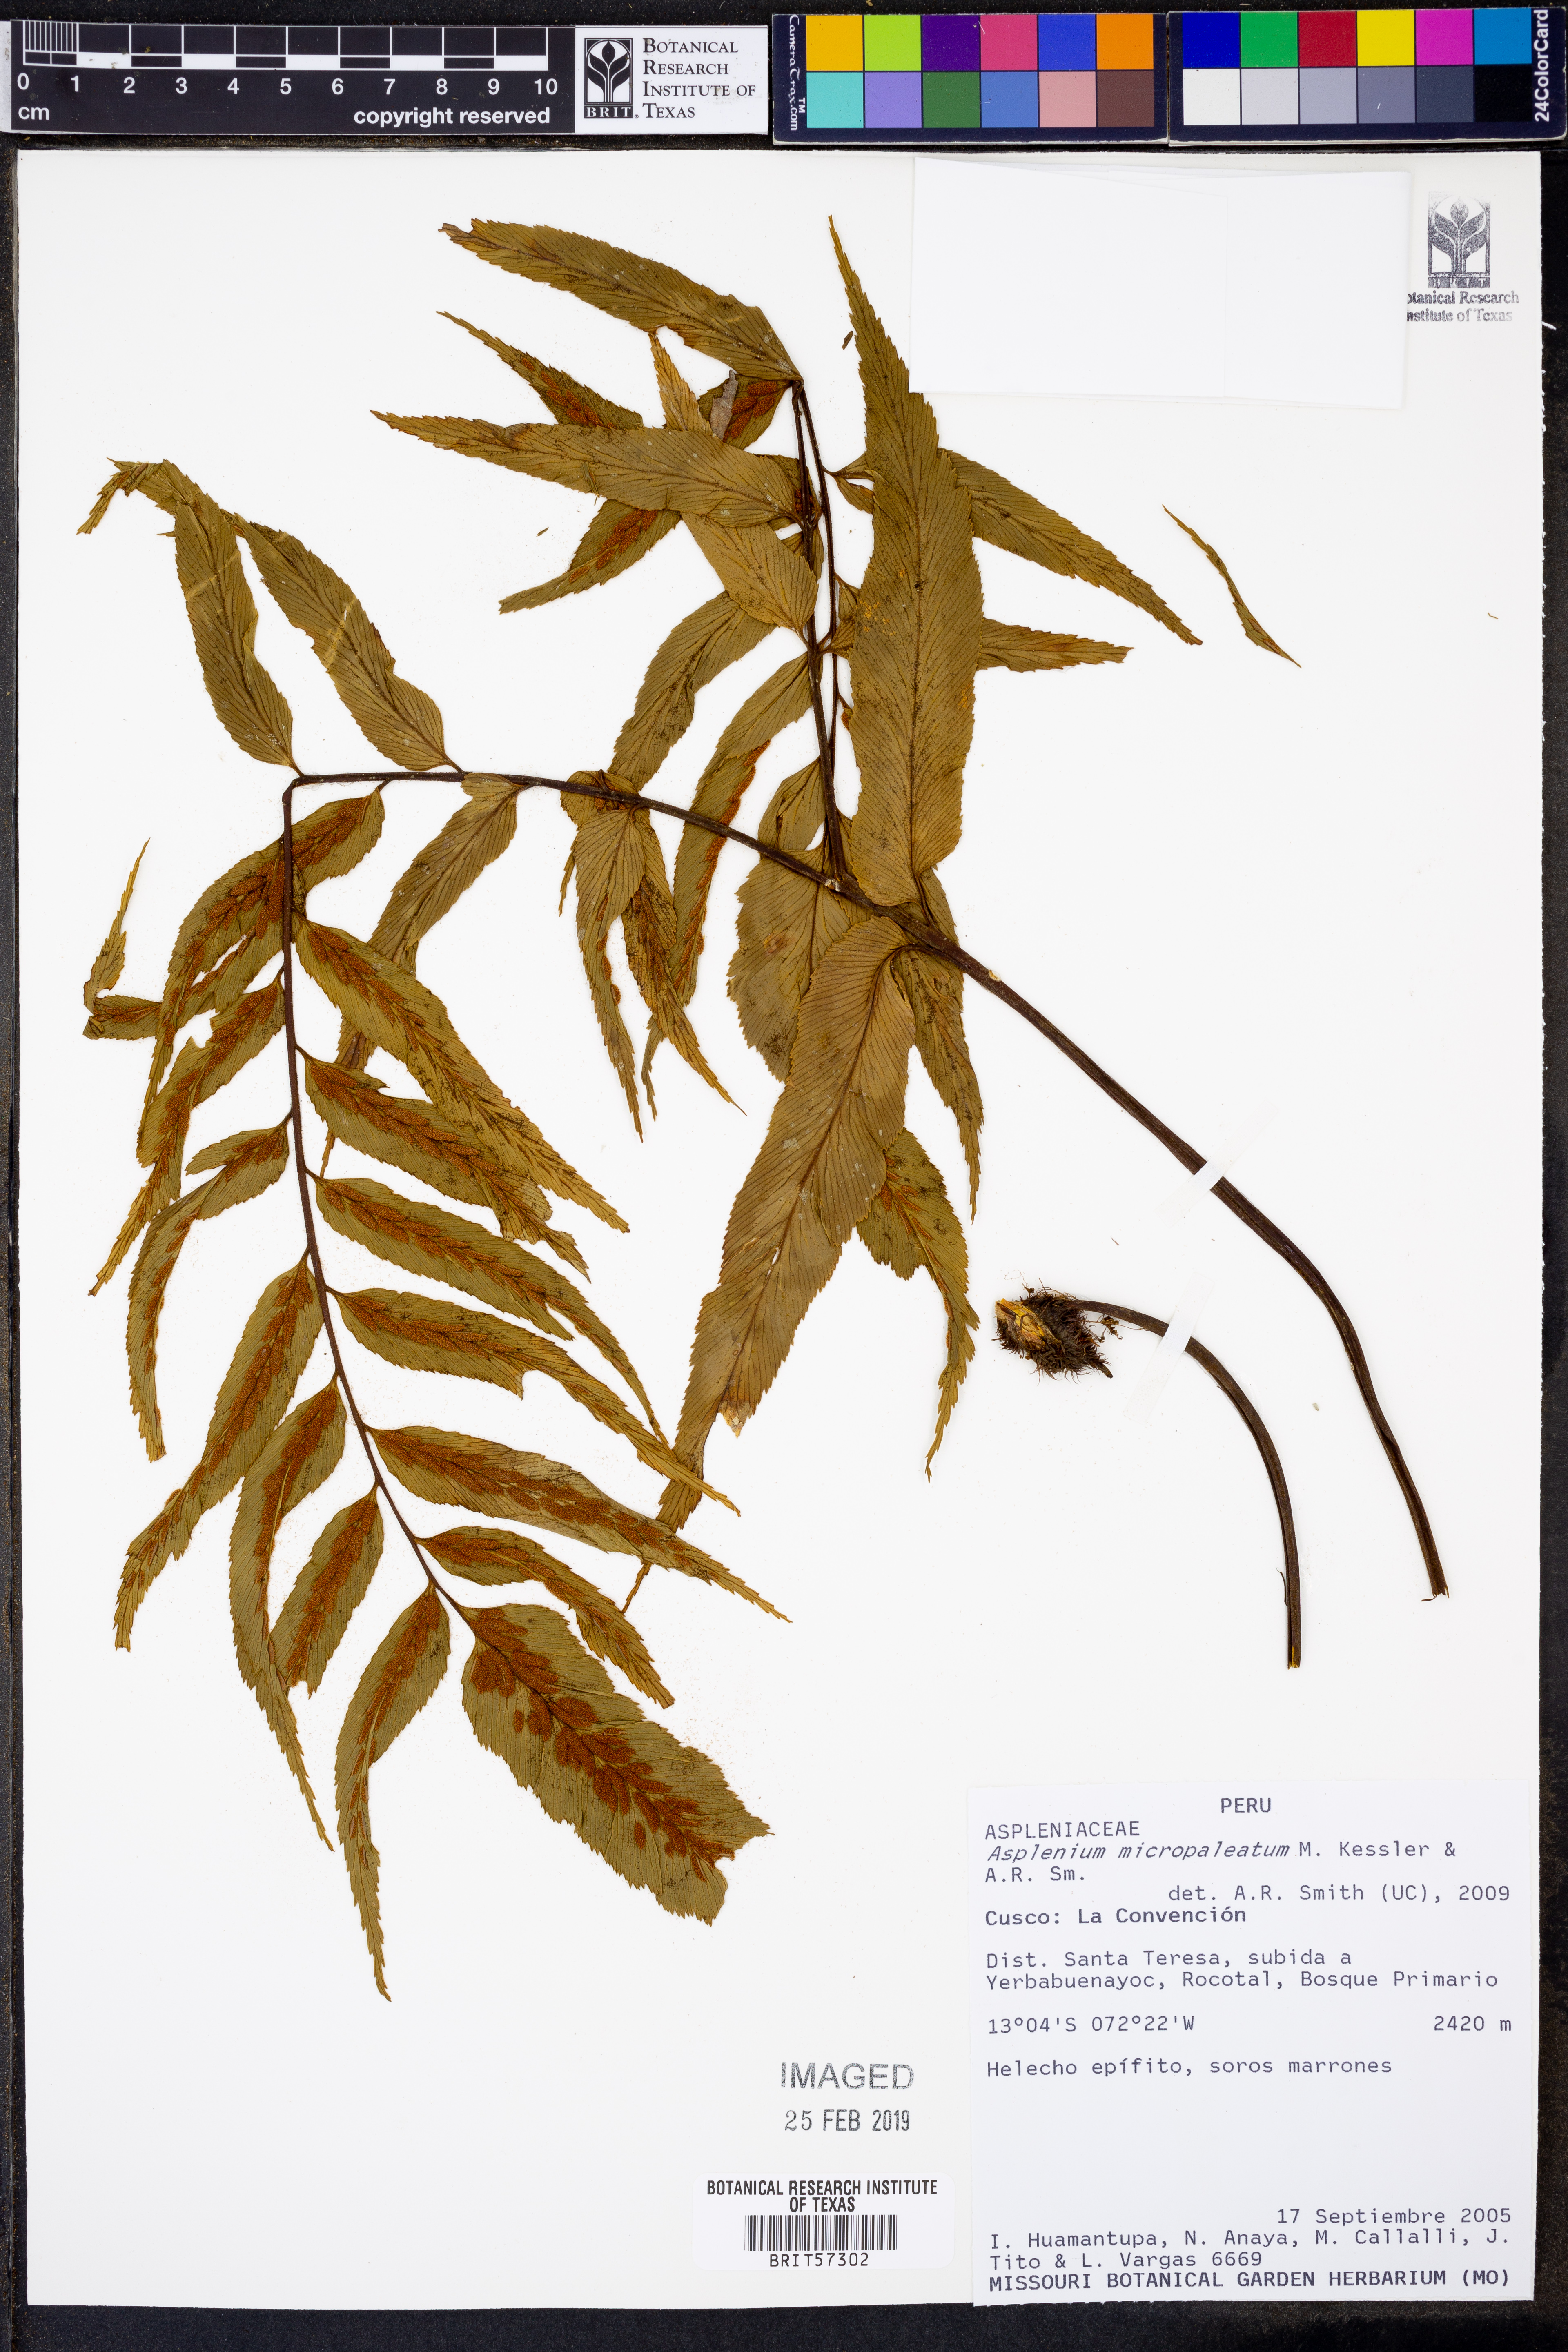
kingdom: Plantae
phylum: Tracheophyta
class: Polypodiopsida
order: Polypodiales
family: Aspleniaceae
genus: Asplenium
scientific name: Asplenium micropaleatum
